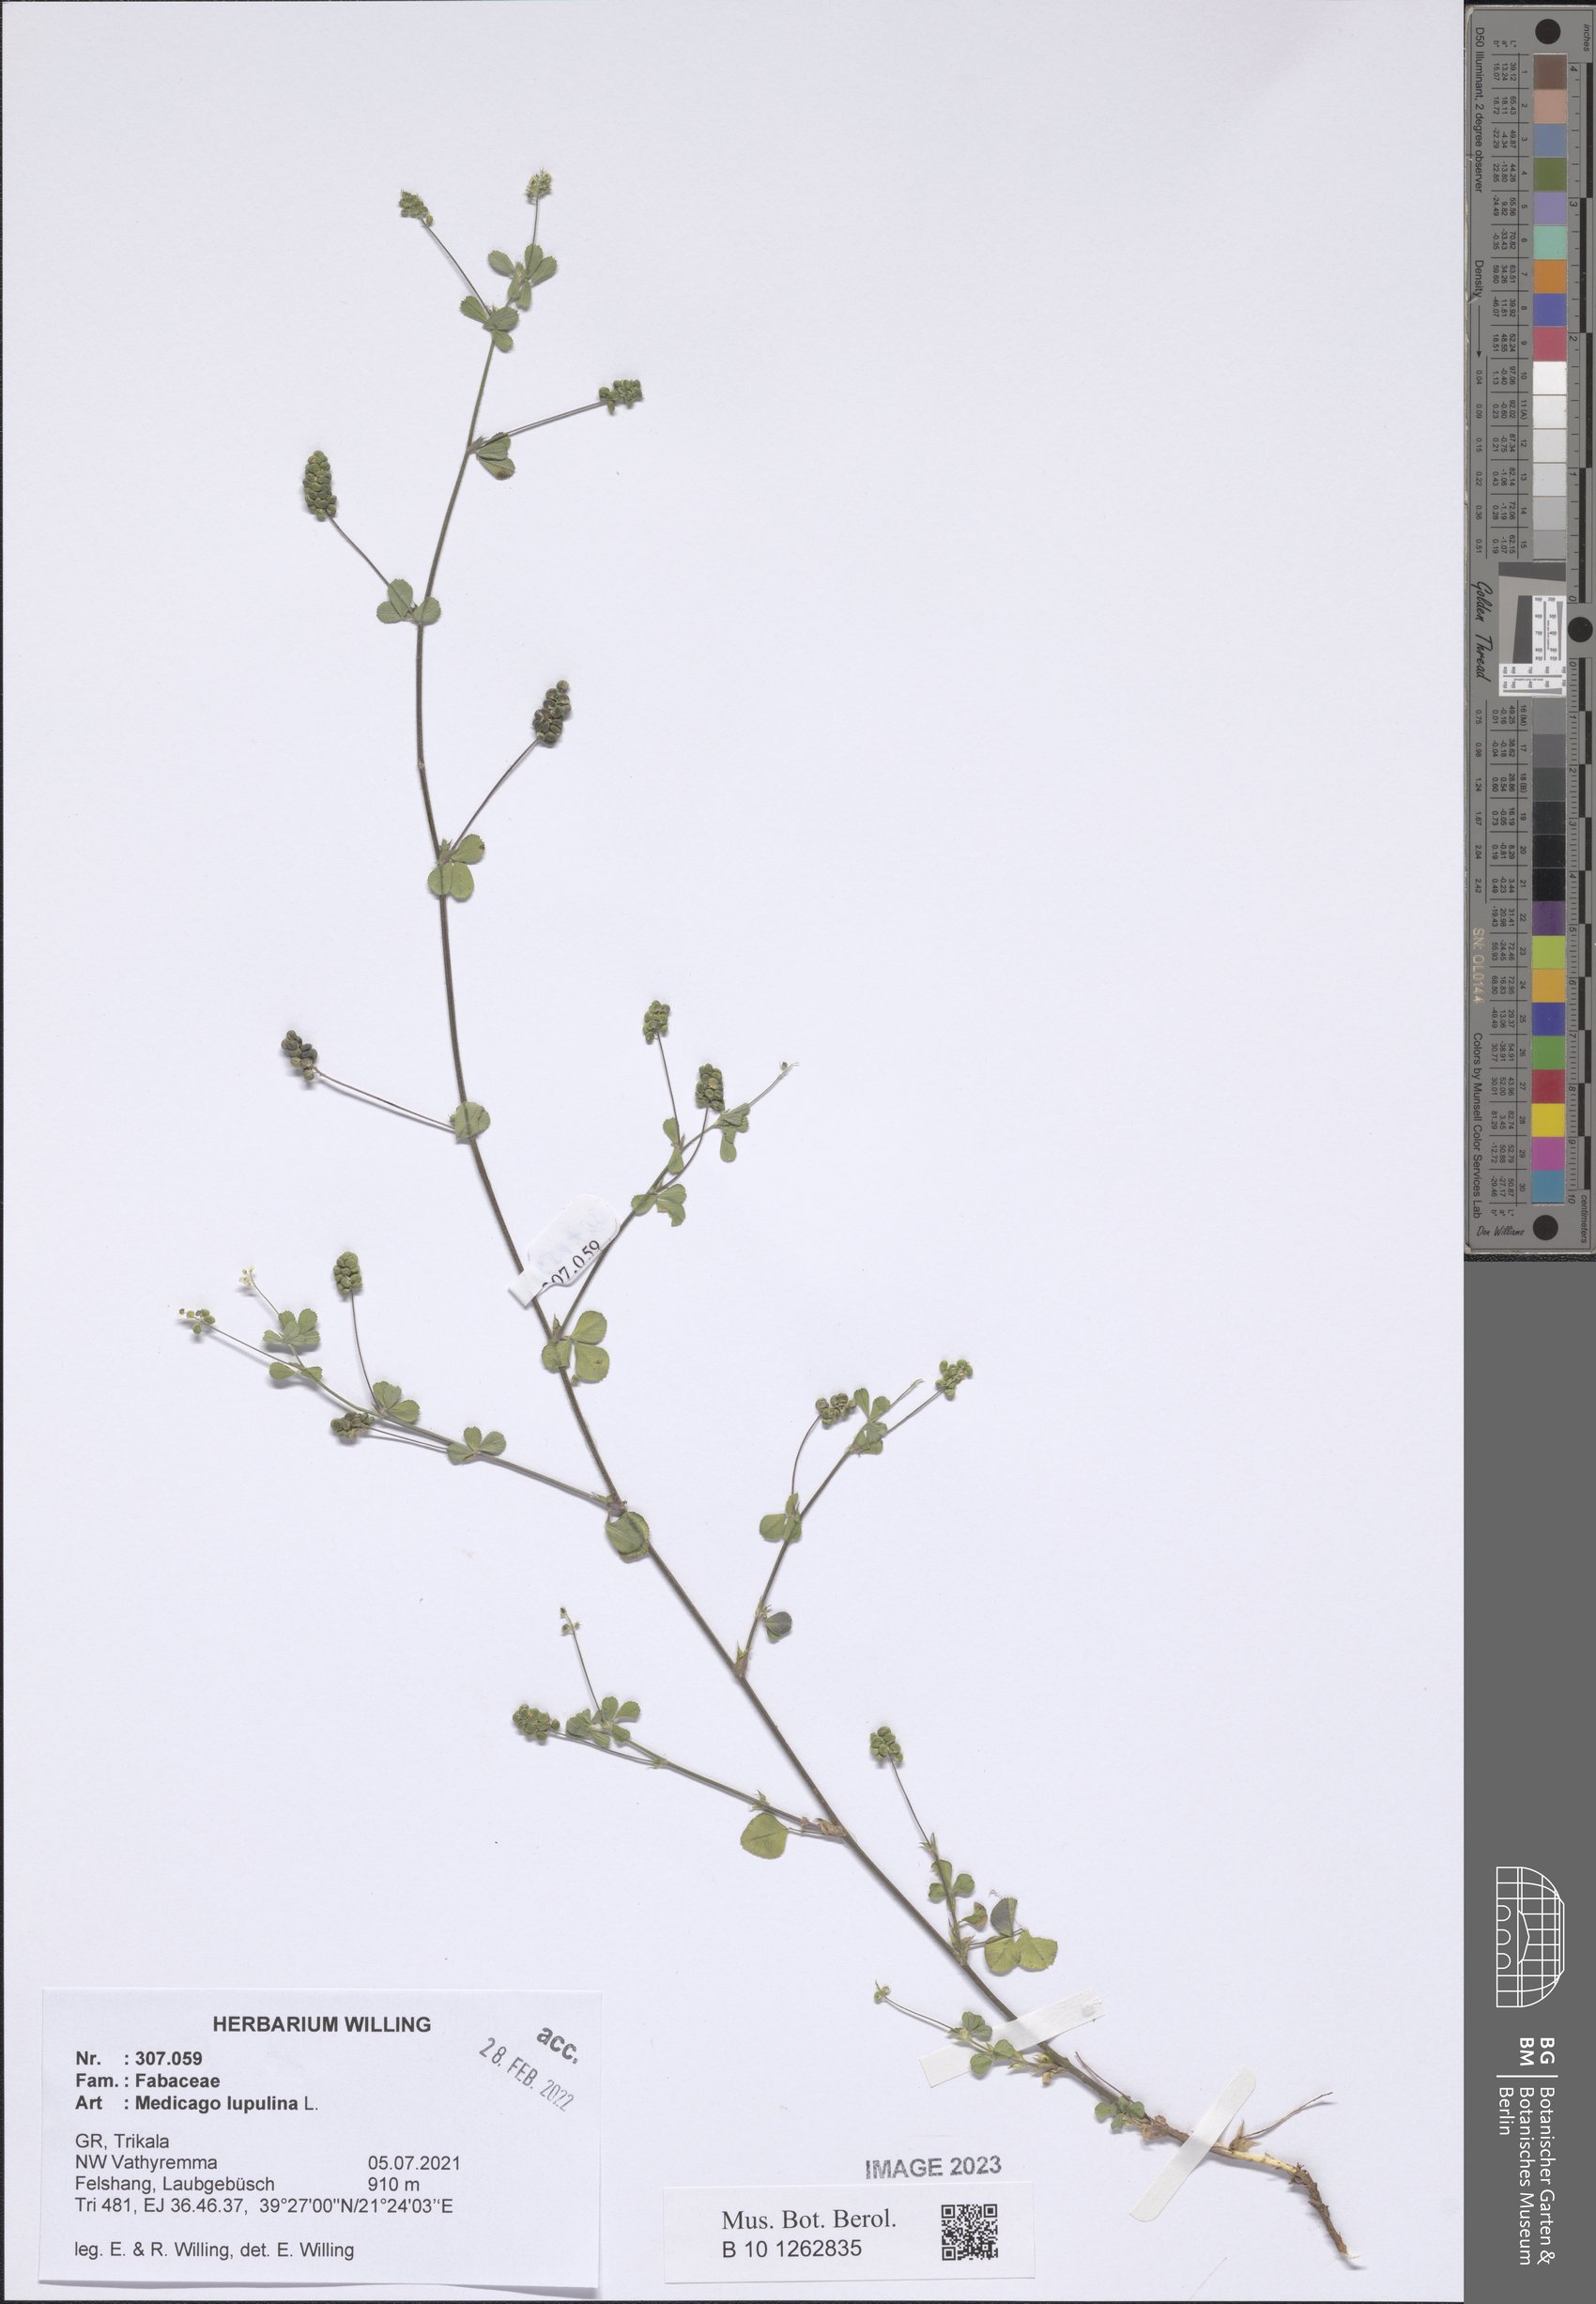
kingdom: Plantae
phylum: Tracheophyta
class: Magnoliopsida
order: Fabales
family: Fabaceae
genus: Medicago
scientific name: Medicago lupulina
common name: Black medick
